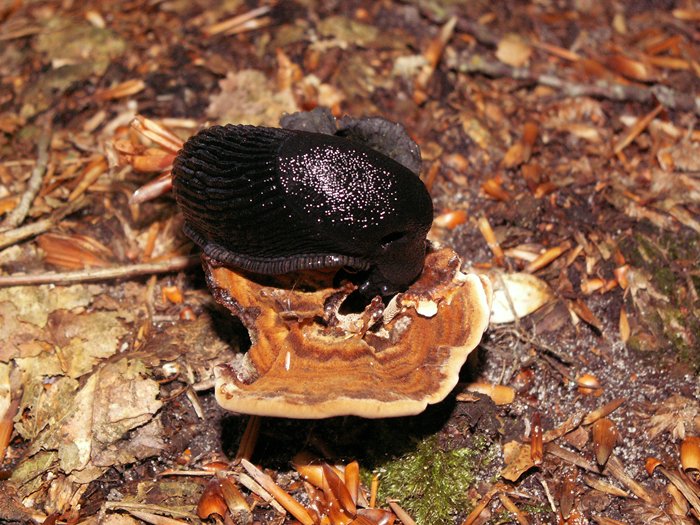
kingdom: Fungi
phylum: Basidiomycota
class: Agaricomycetes
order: Hymenochaetales
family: Hymenochaetaceae
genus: Coltricia
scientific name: Coltricia
